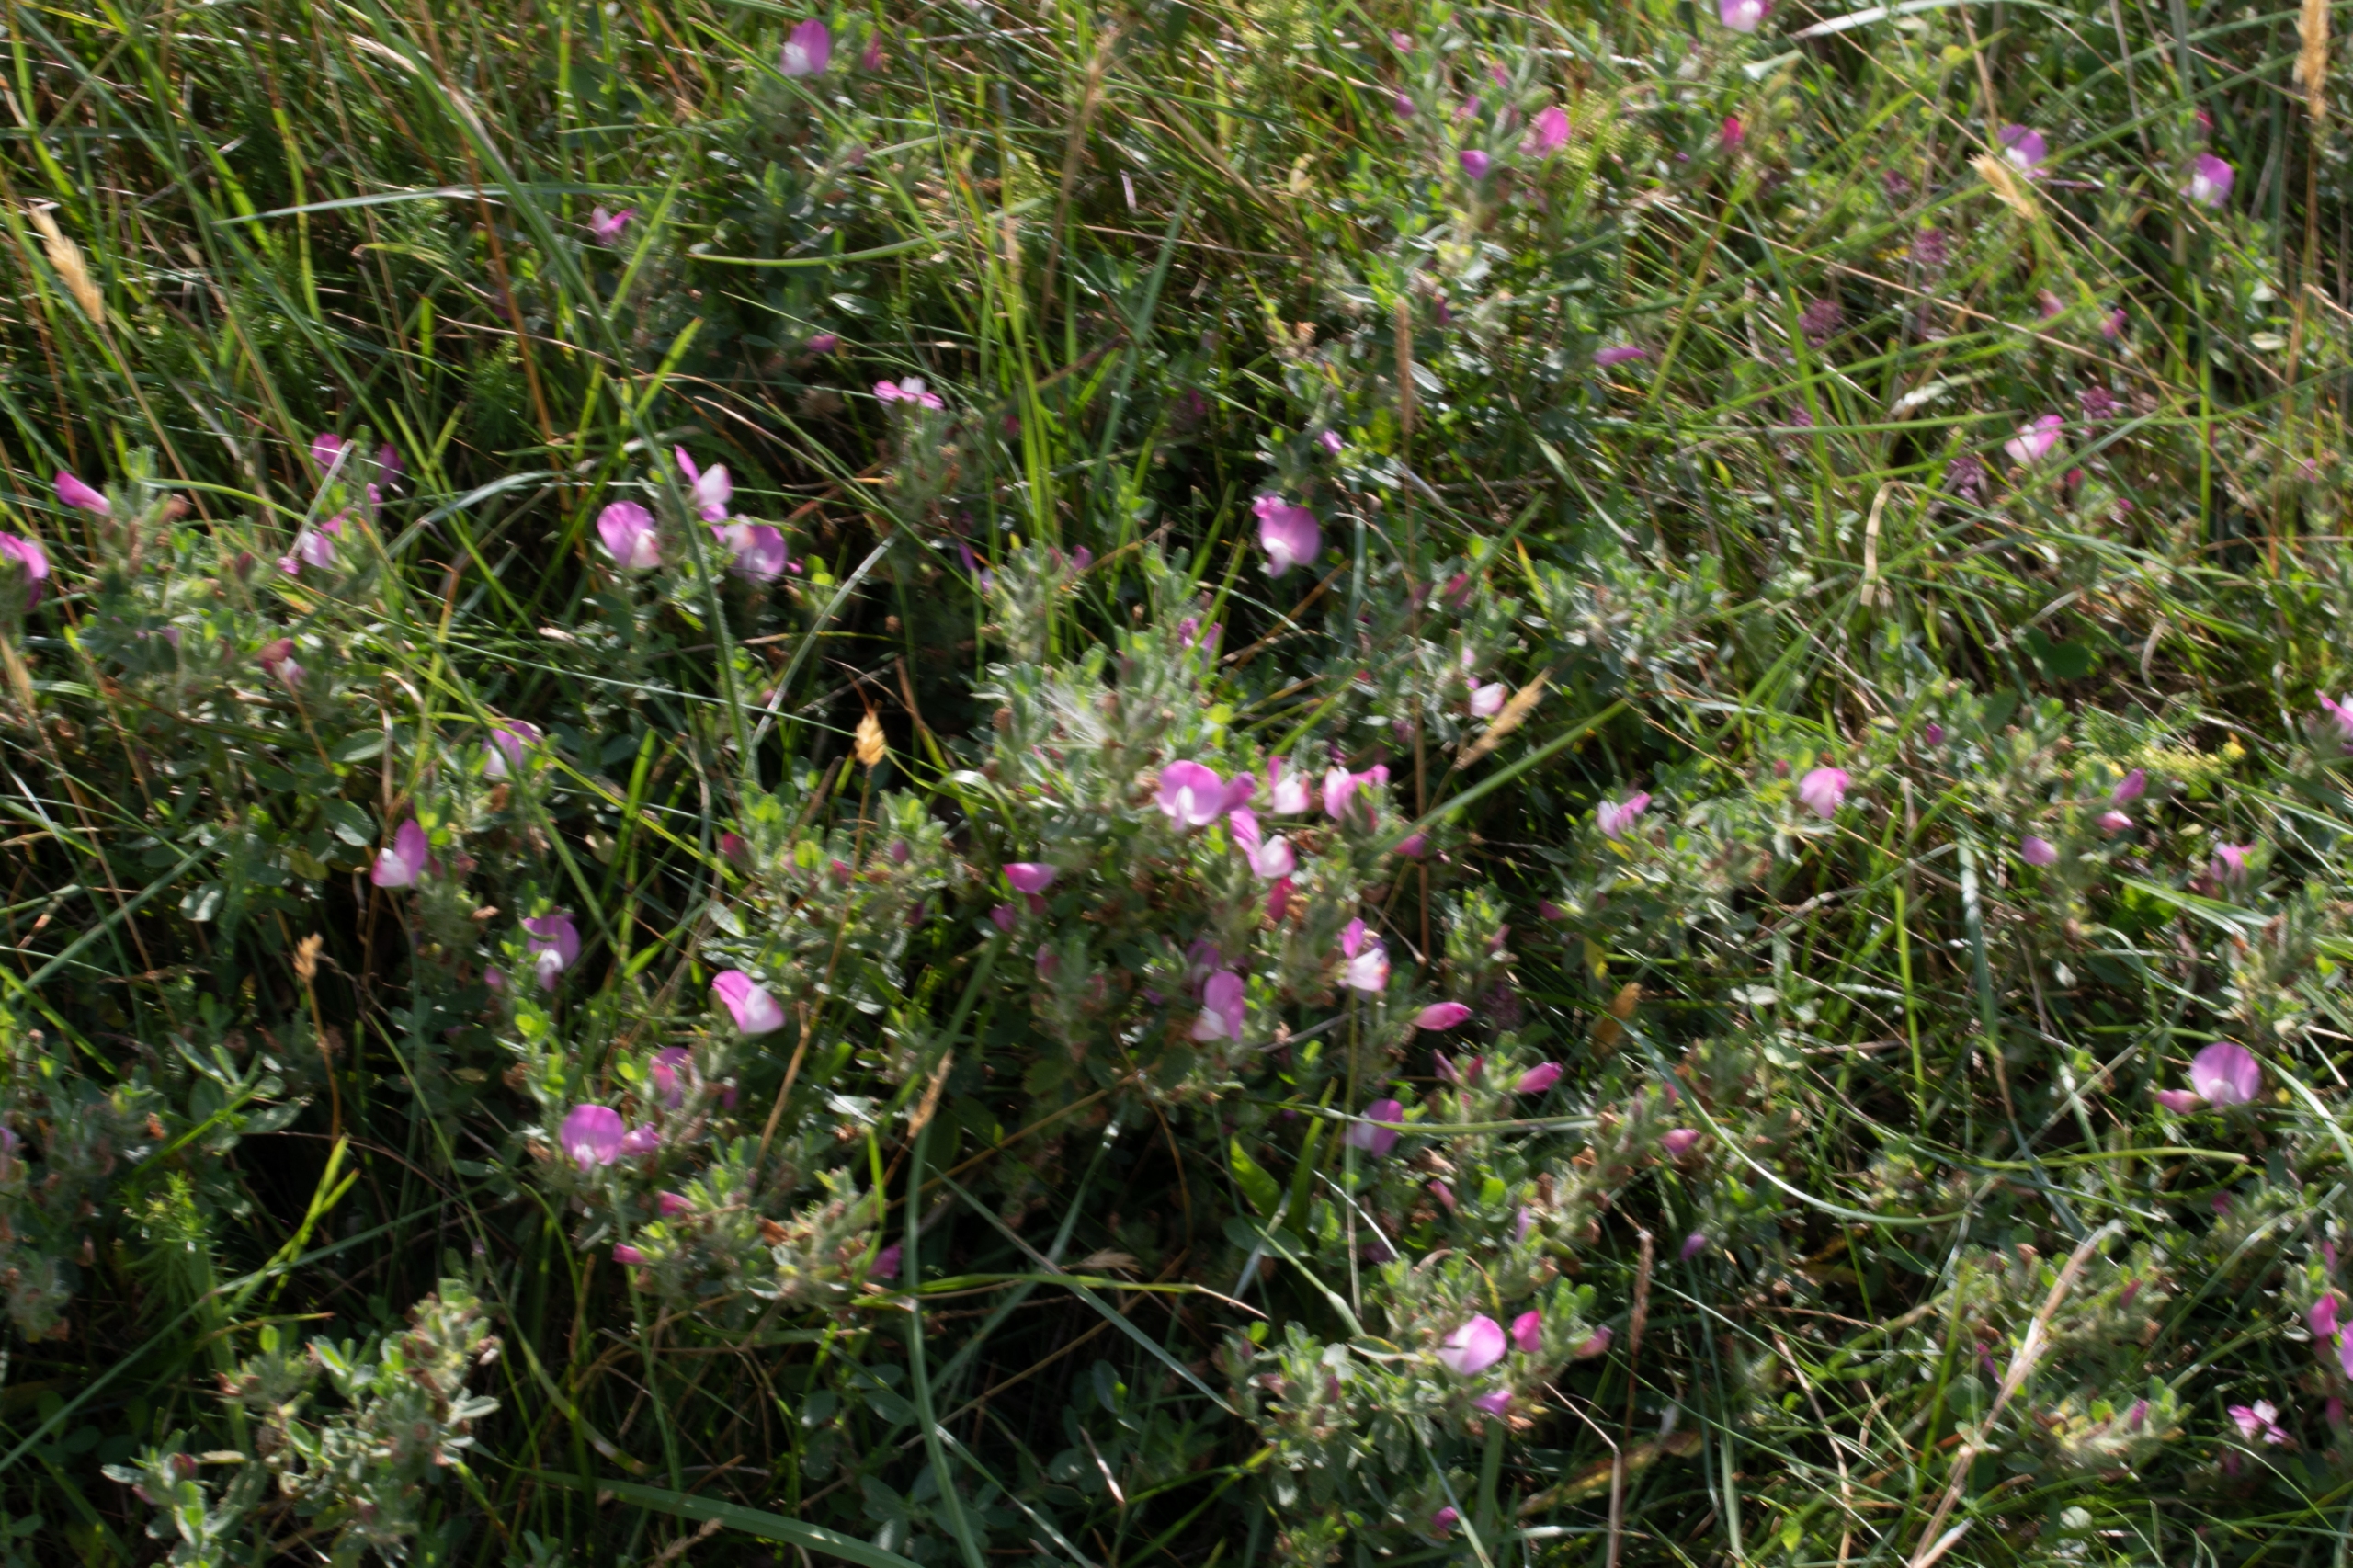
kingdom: Plantae
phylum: Tracheophyta
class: Magnoliopsida
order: Fabales
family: Fabaceae
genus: Ononis
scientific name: Ononis spinosa
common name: Mark-krageklo
